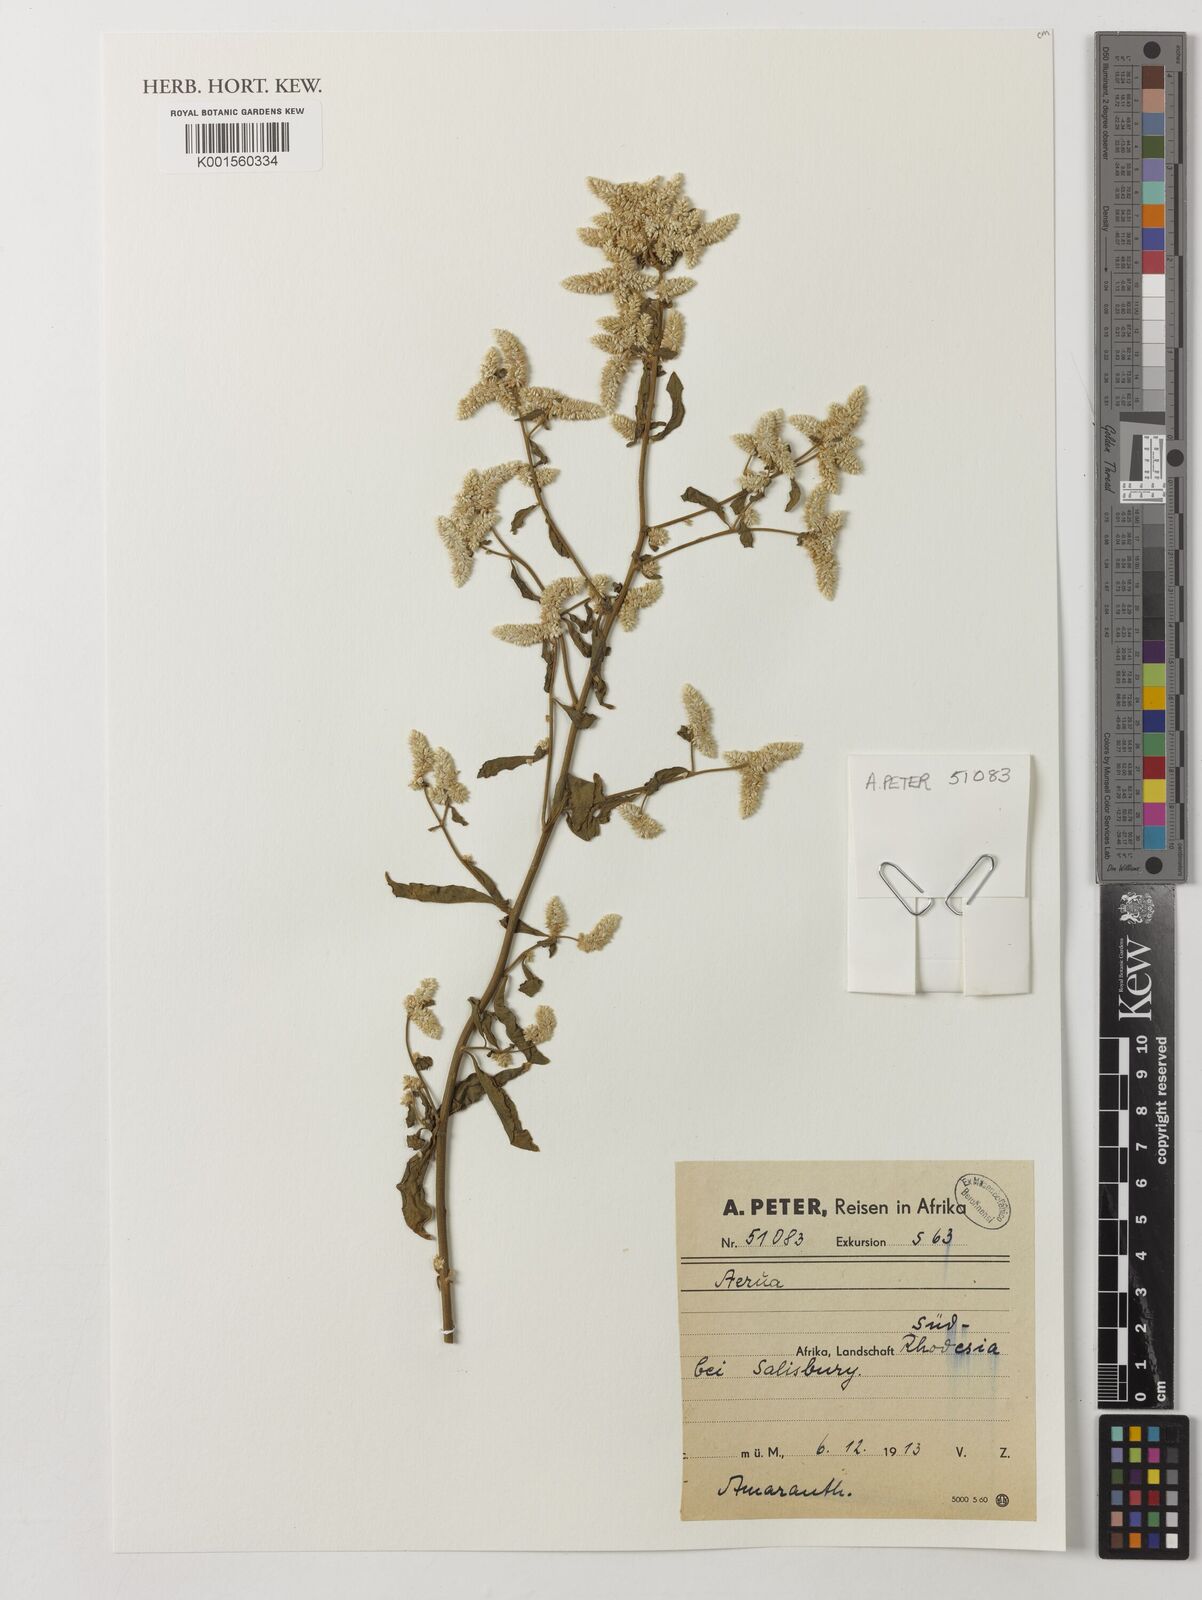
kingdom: Plantae
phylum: Tracheophyta
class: Magnoliopsida
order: Caryophyllales
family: Amaranthaceae
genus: Aerva
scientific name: Aerva
